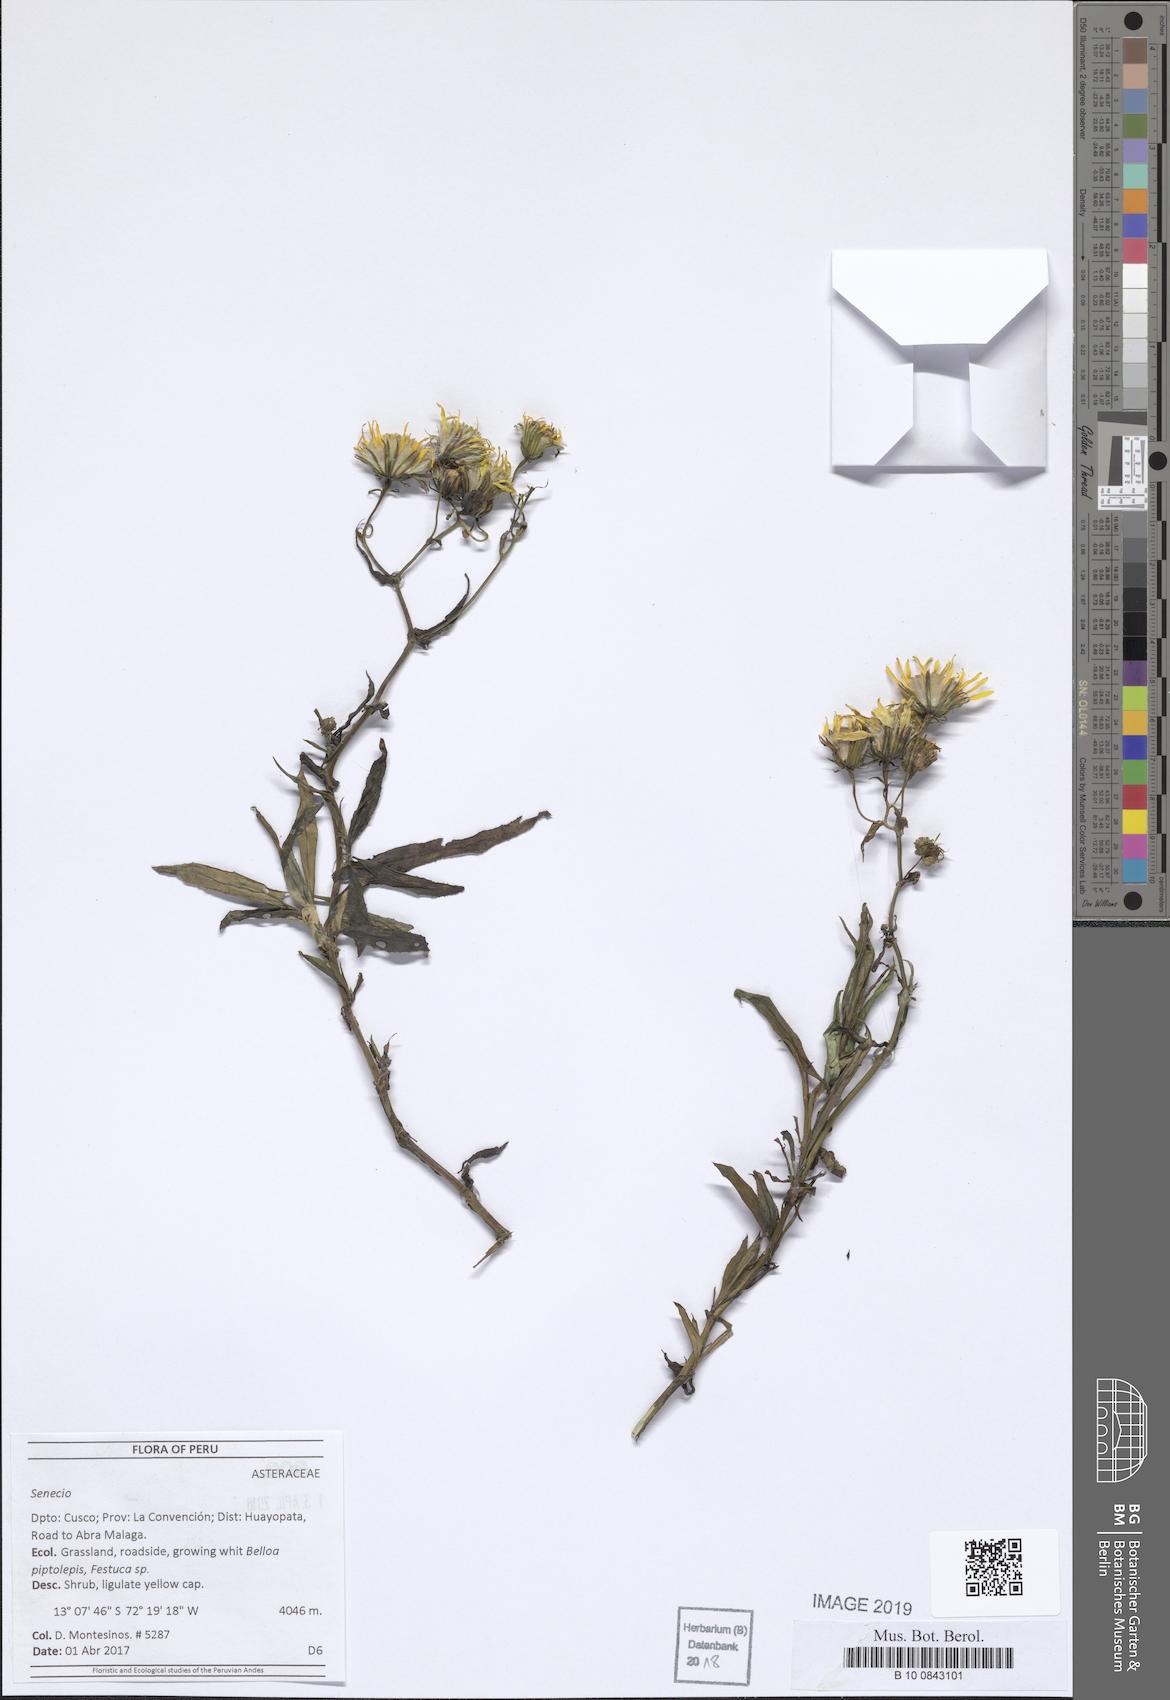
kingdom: Plantae
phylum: Tracheophyta
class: Liliopsida
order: Poales
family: Poaceae
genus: Deschampsia
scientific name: Deschampsia airiformis
